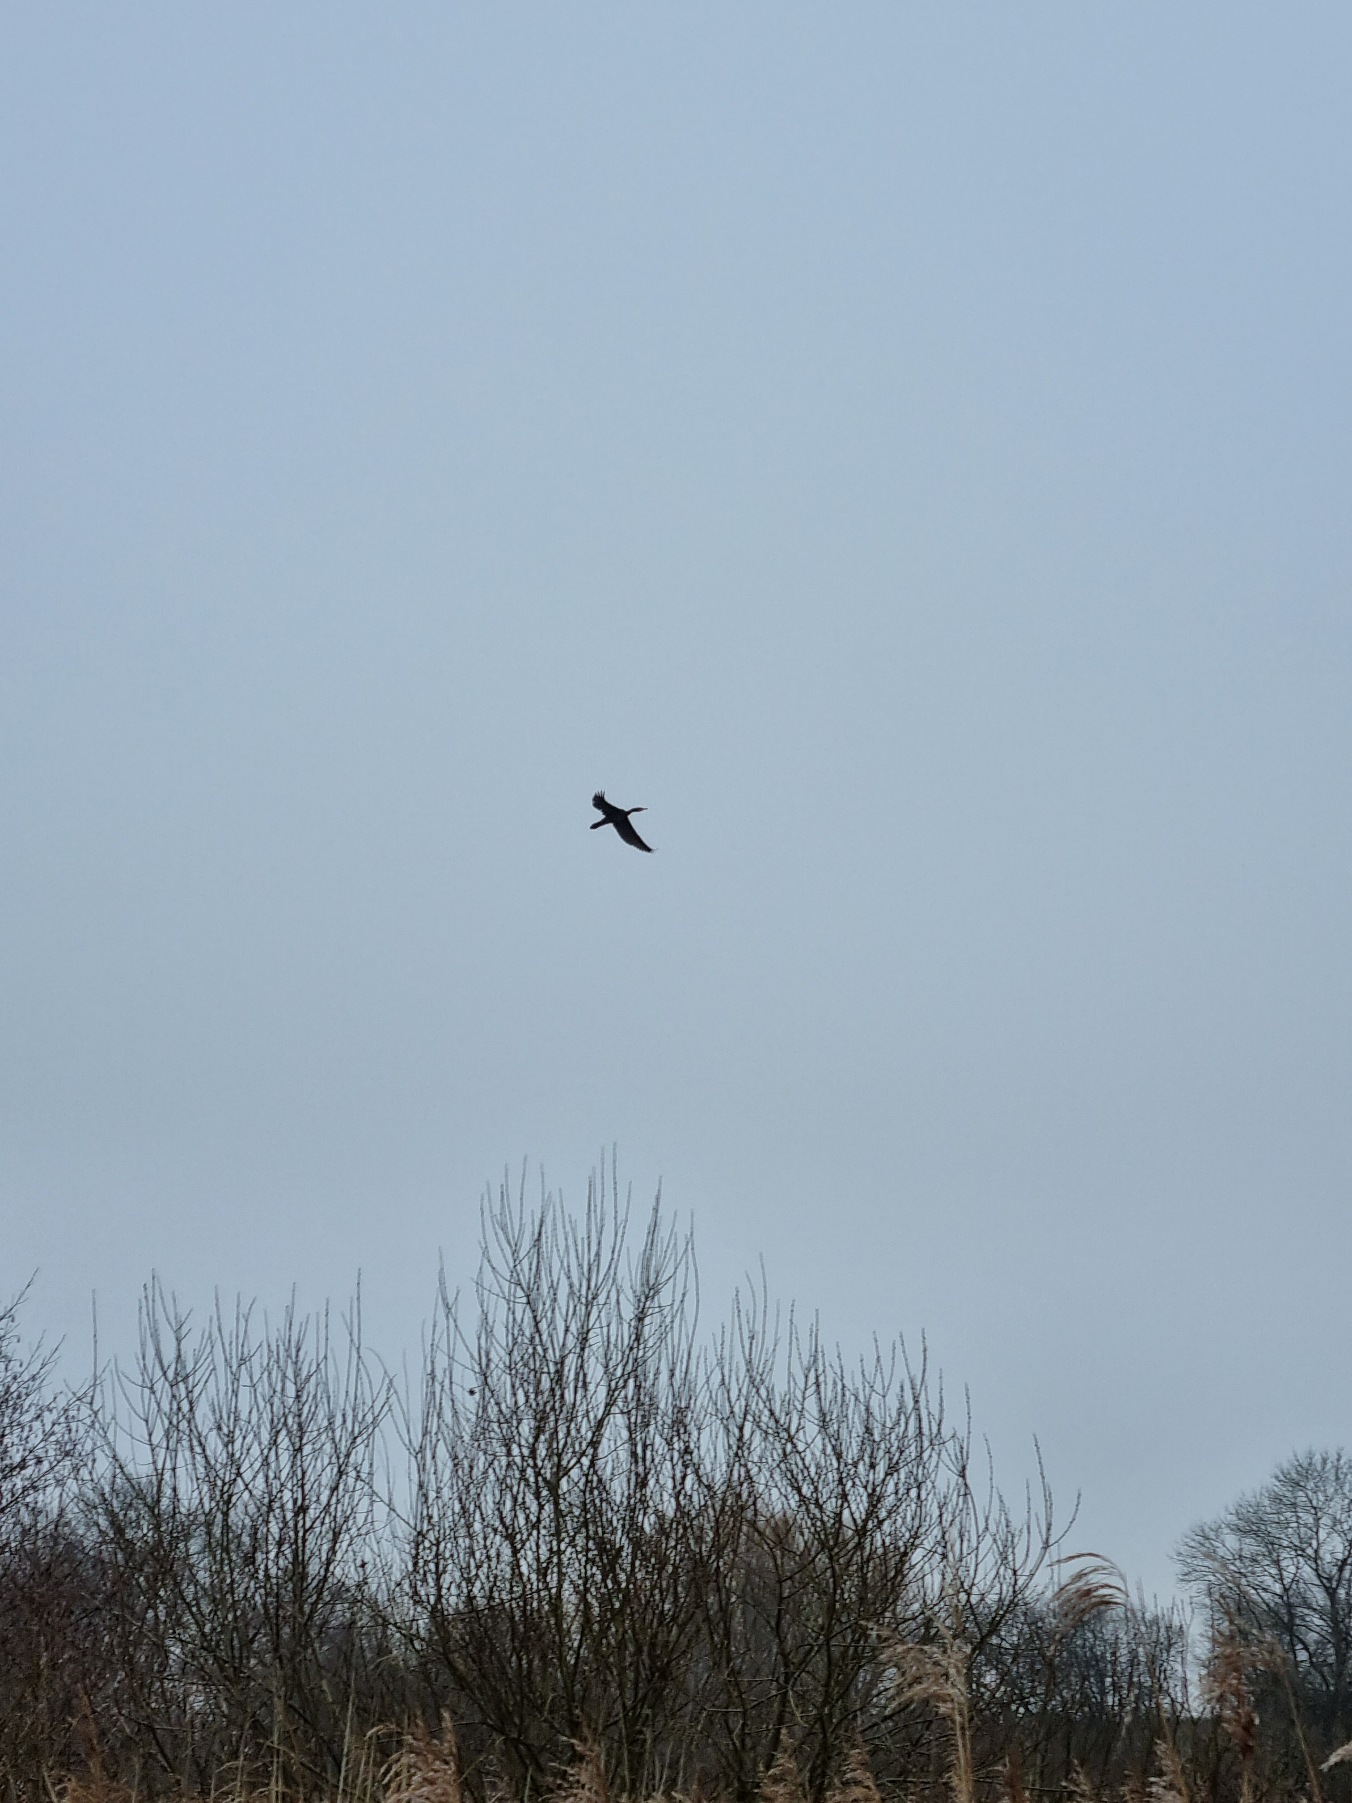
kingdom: Animalia
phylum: Chordata
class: Aves
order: Suliformes
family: Phalacrocoracidae
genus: Phalacrocorax
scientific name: Phalacrocorax carbo
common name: Skarv
